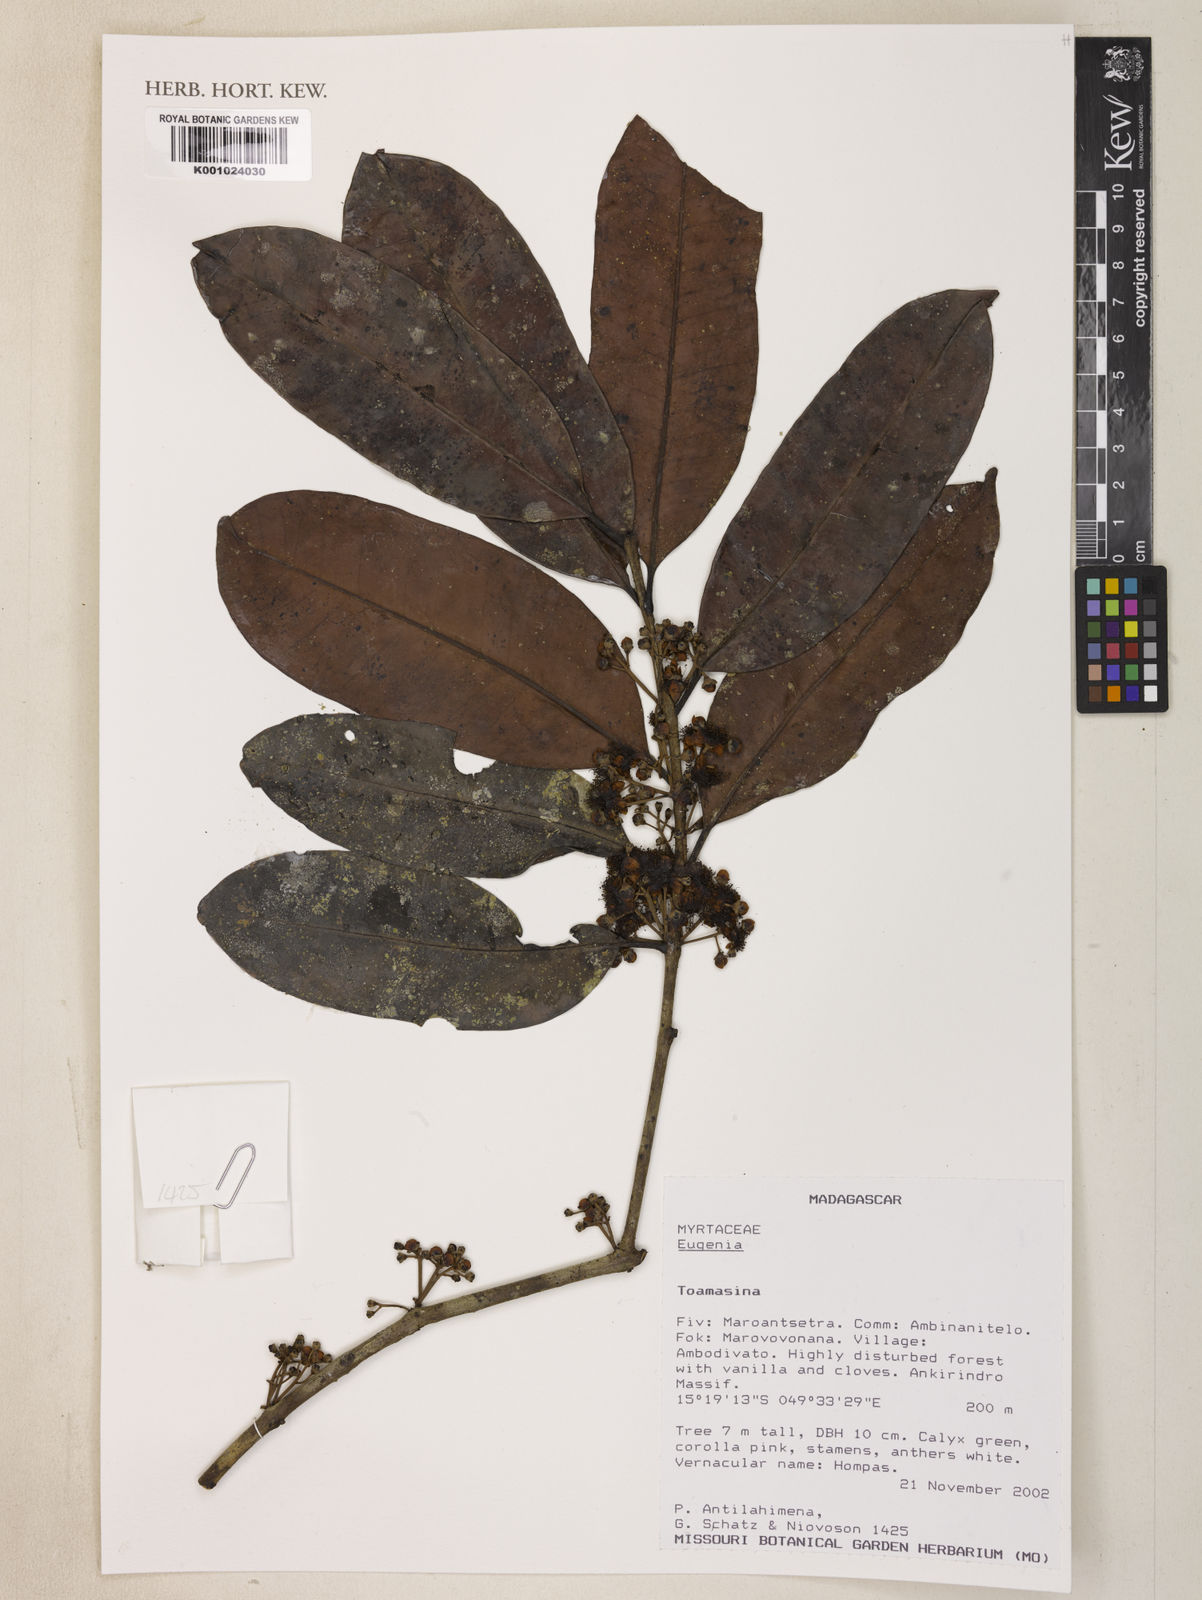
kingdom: Plantae
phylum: Tracheophyta
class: Magnoliopsida
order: Myrtales
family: Myrtaceae
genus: Eugenia
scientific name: Eugenia
